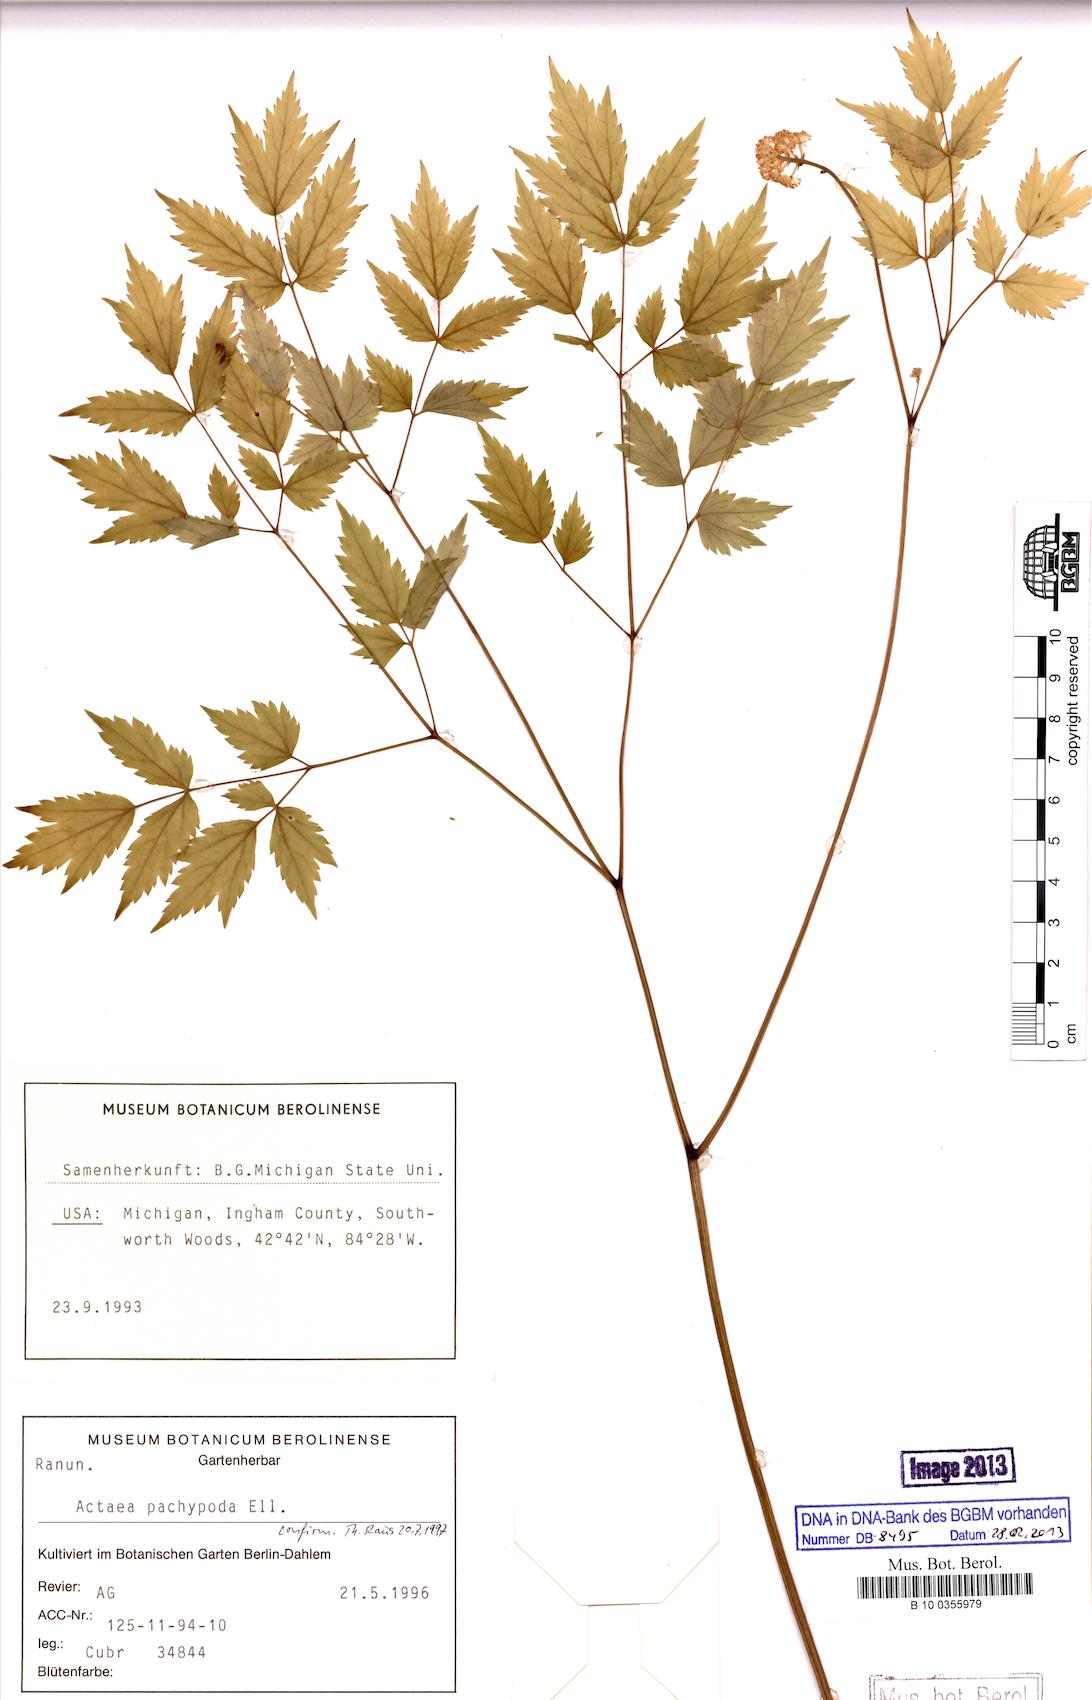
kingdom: Plantae
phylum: Tracheophyta
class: Magnoliopsida
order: Ranunculales
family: Ranunculaceae
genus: Actaea
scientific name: Actaea pachypoda
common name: Doll's-eyes
